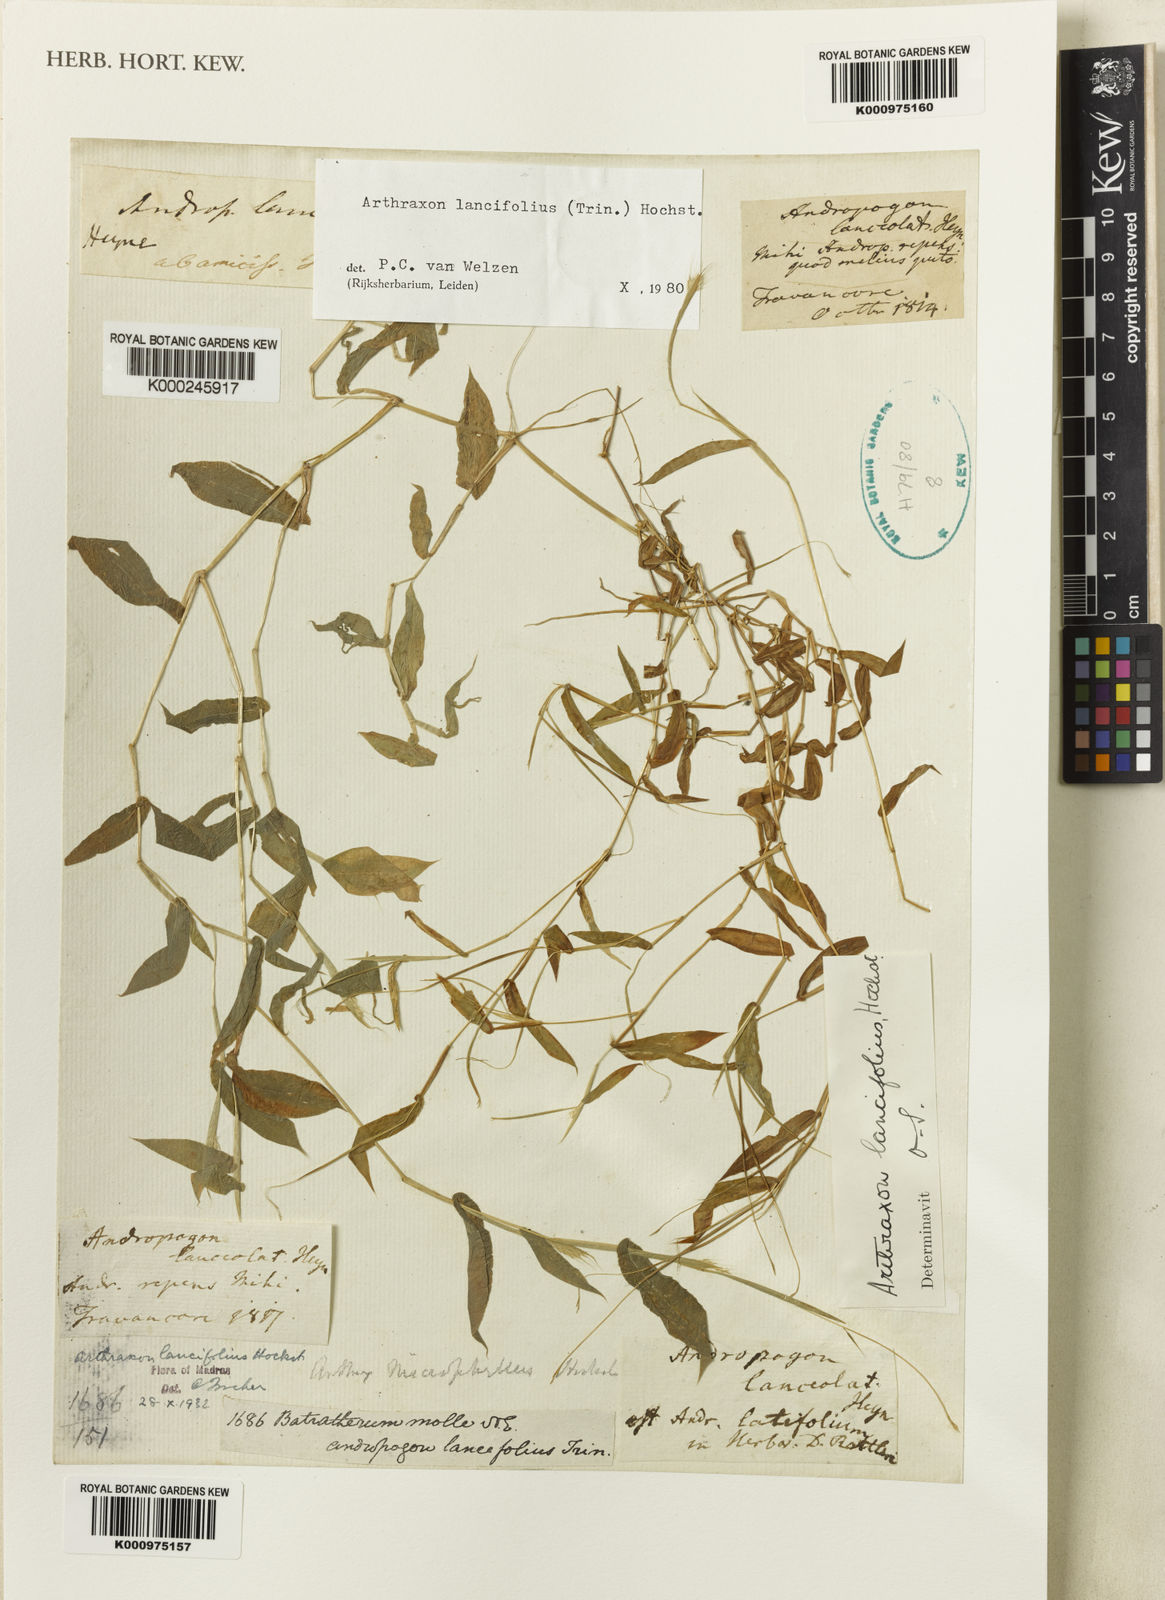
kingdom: Plantae
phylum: Tracheophyta
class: Liliopsida
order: Poales
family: Poaceae
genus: Arthraxon
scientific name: Arthraxon lancifolius
